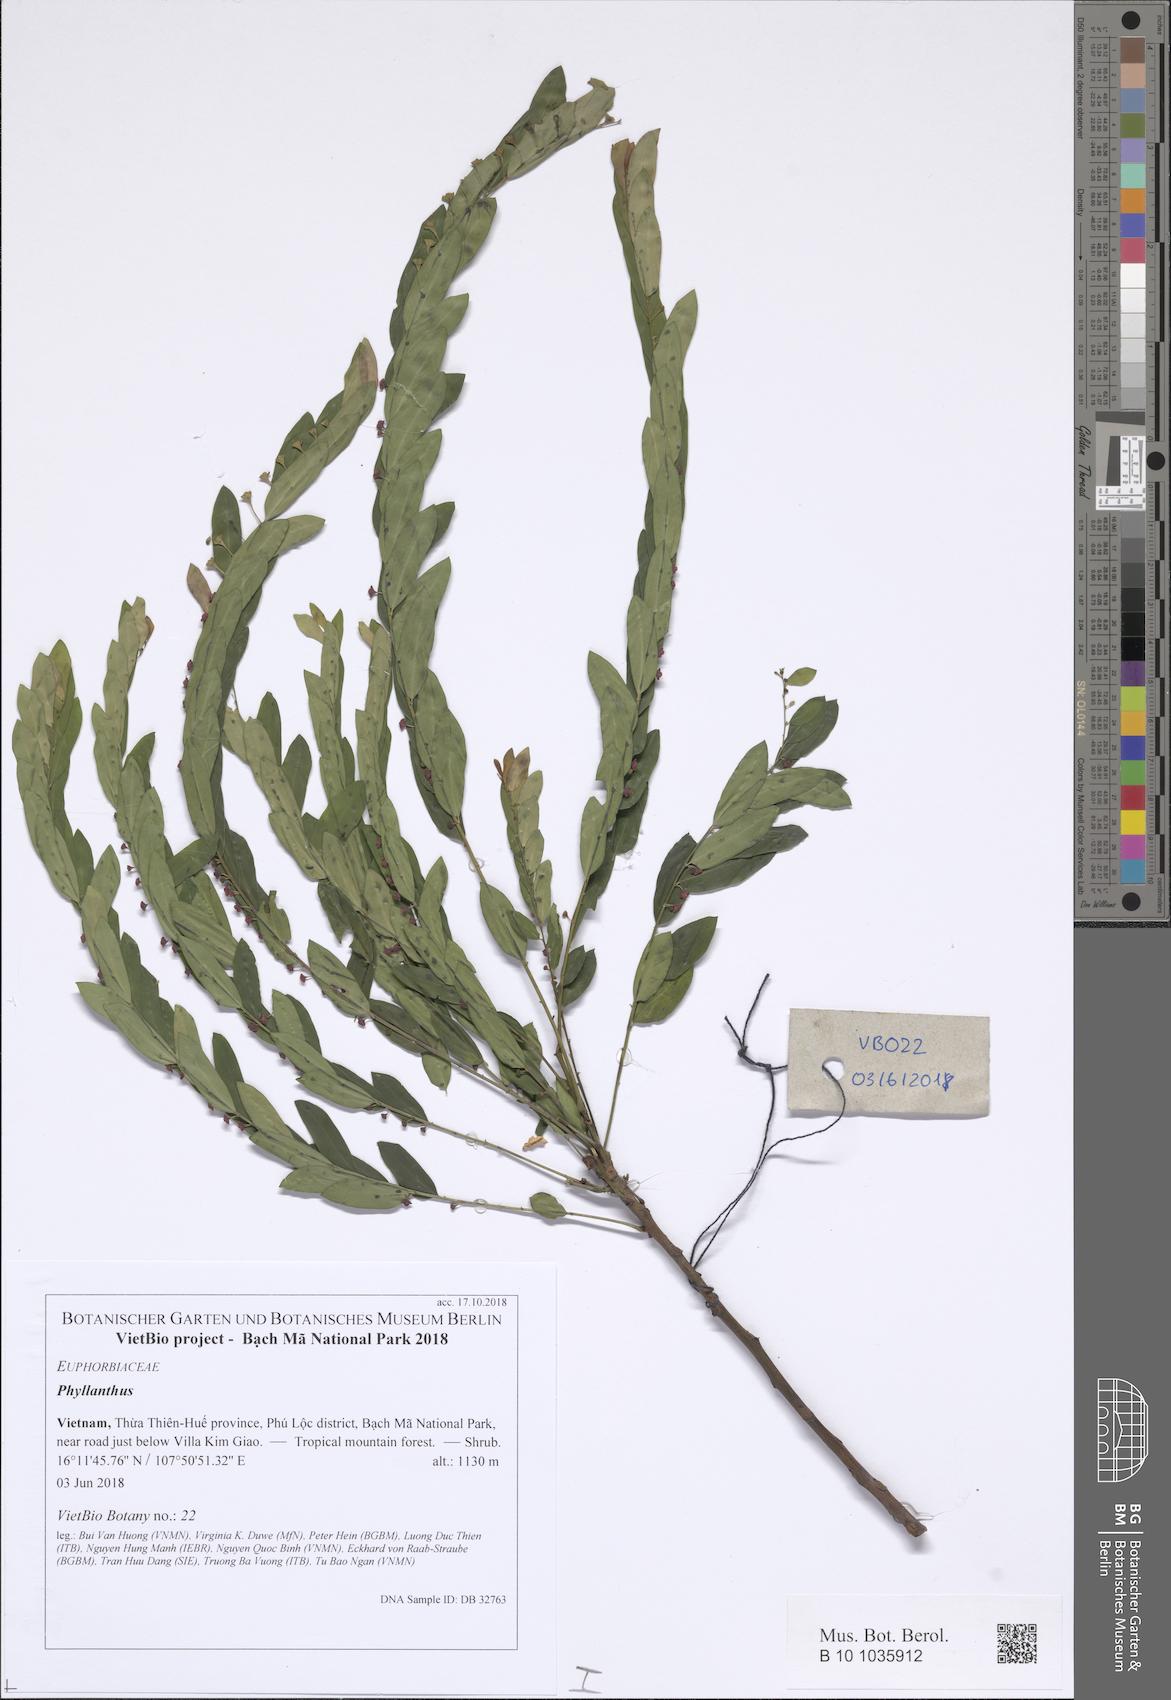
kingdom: Plantae
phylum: Tracheophyta
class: Magnoliopsida
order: Malpighiales
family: Phyllanthaceae
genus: Phyllanthus
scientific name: Phyllanthus
